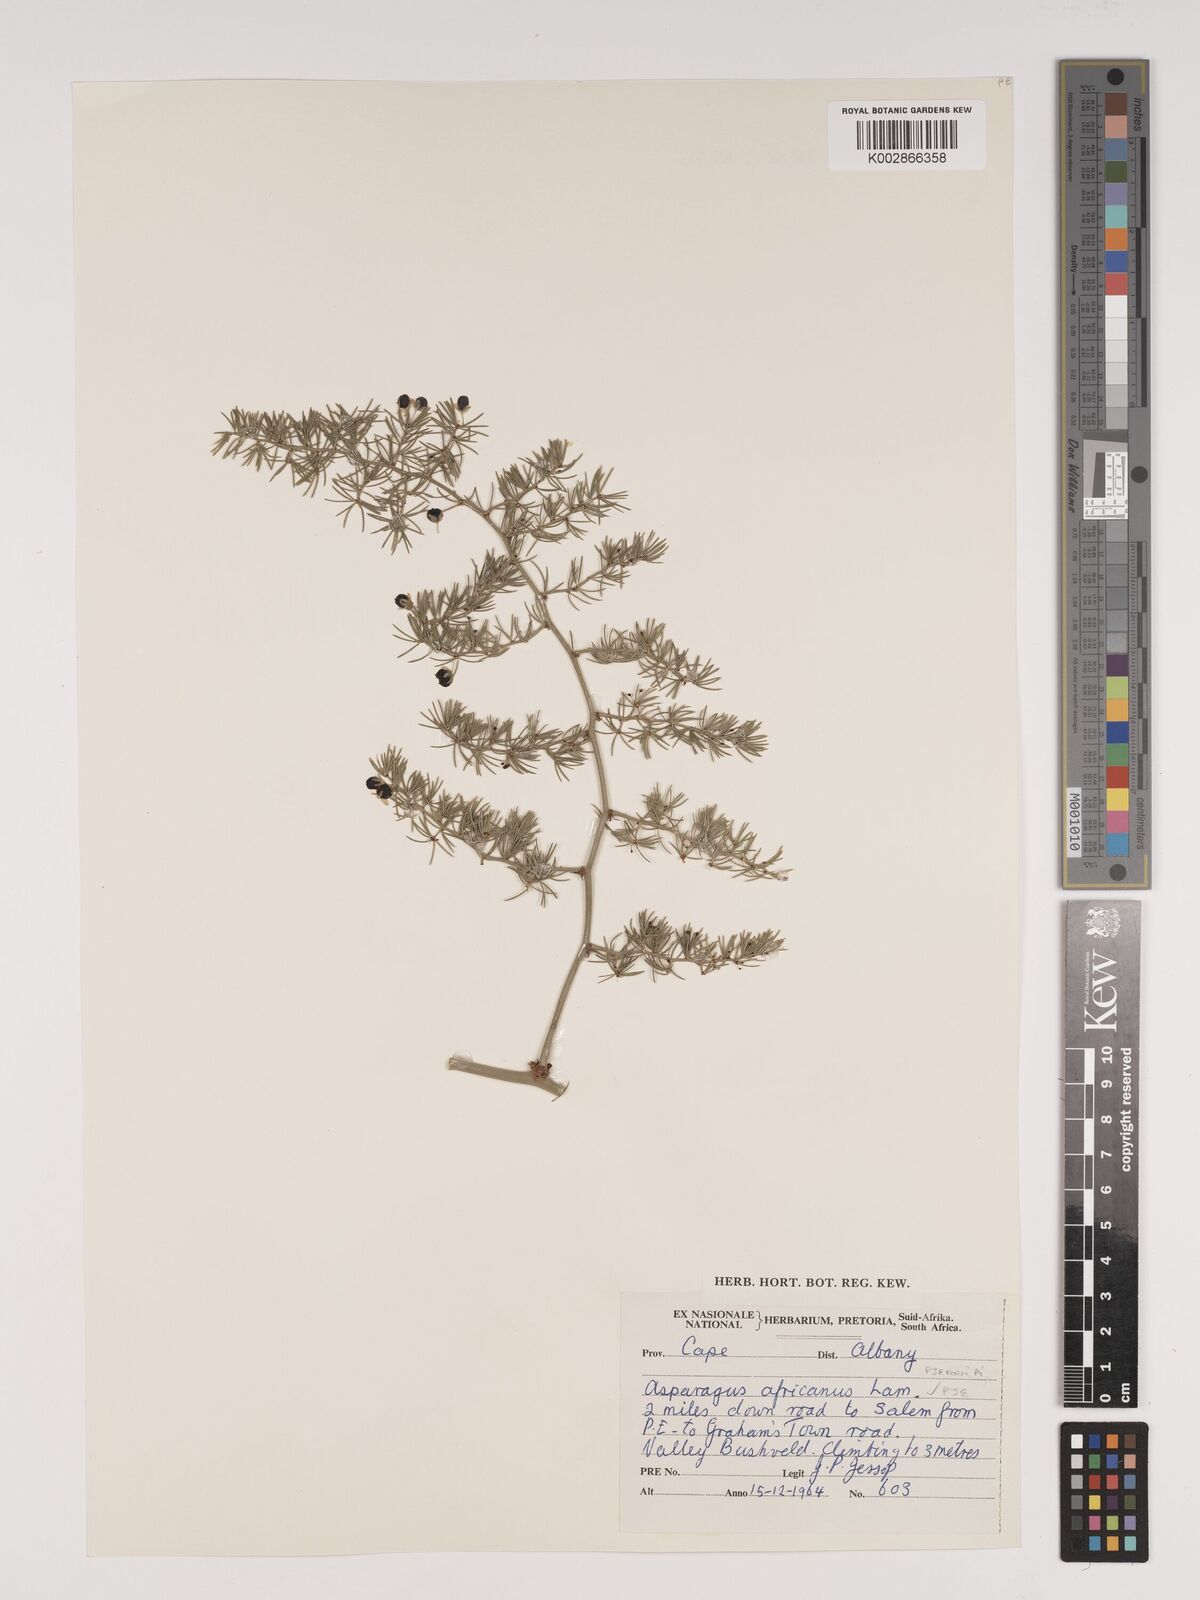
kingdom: Plantae
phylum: Tracheophyta
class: Liliopsida
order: Asparagales
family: Asparagaceae
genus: Asparagus
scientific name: Asparagus africanus
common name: Asparagus-fern
